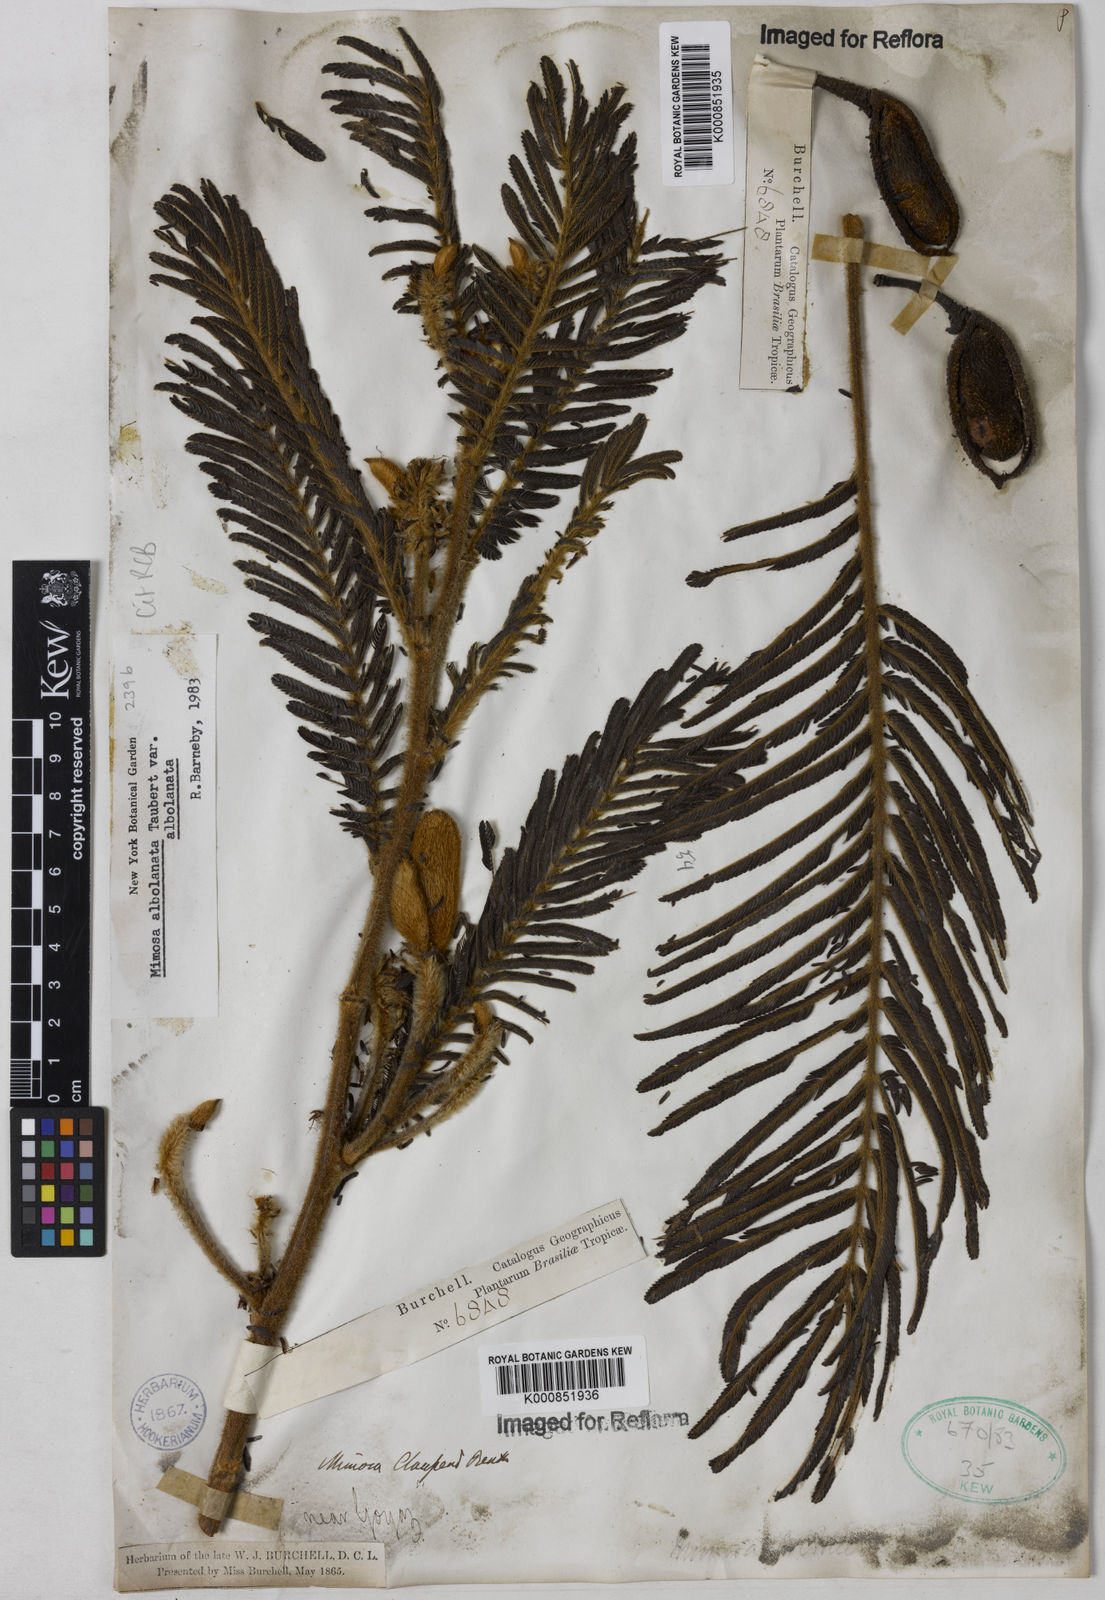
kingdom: Plantae
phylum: Tracheophyta
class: Magnoliopsida
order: Fabales
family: Fabaceae
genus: Mimosa
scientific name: Mimosa albolanata
